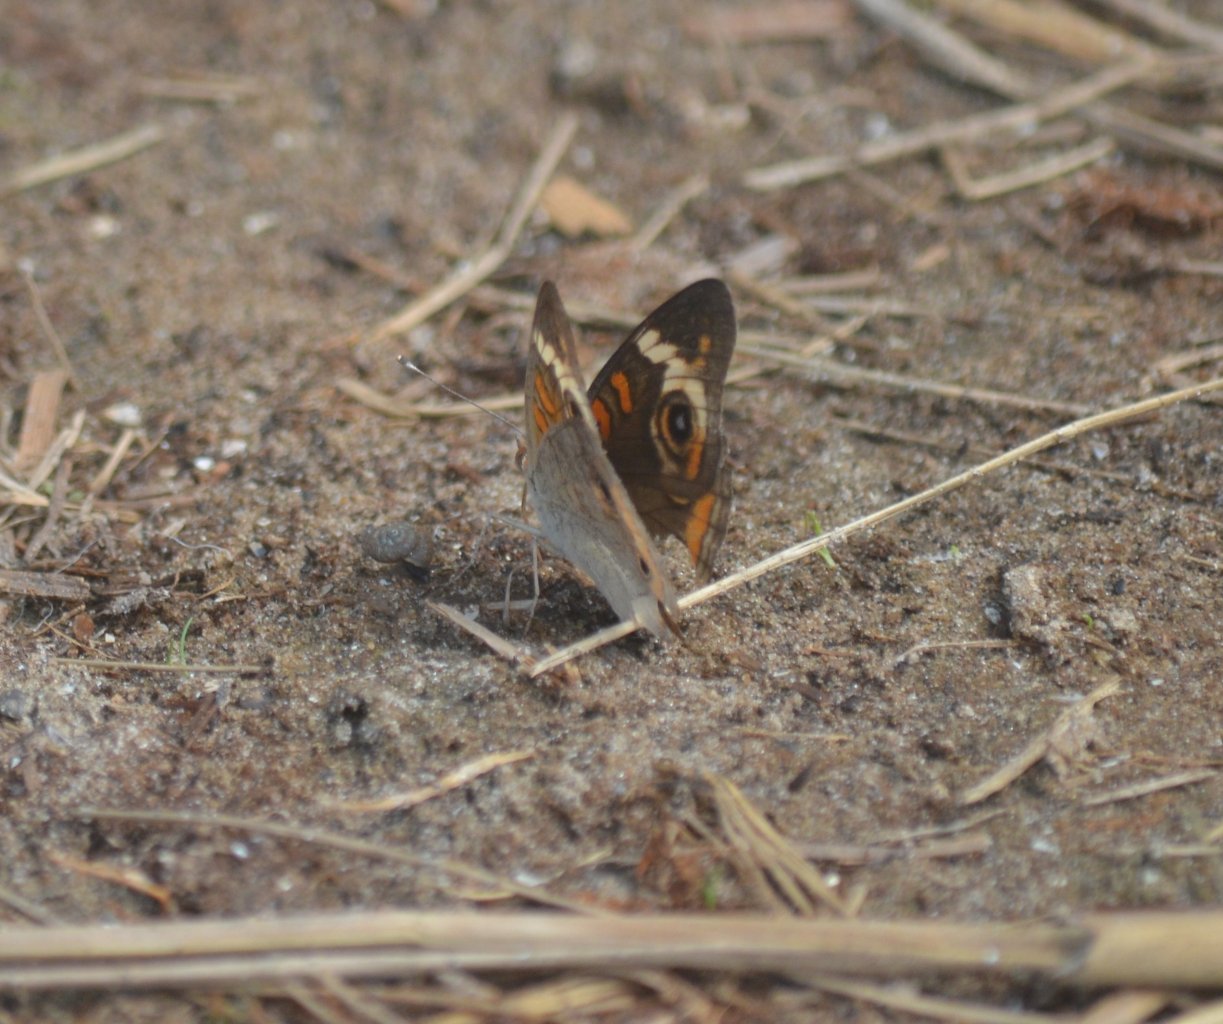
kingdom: Animalia
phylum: Arthropoda
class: Insecta
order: Lepidoptera
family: Nymphalidae
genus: Junonia
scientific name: Junonia coenia
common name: Common Buckeye
